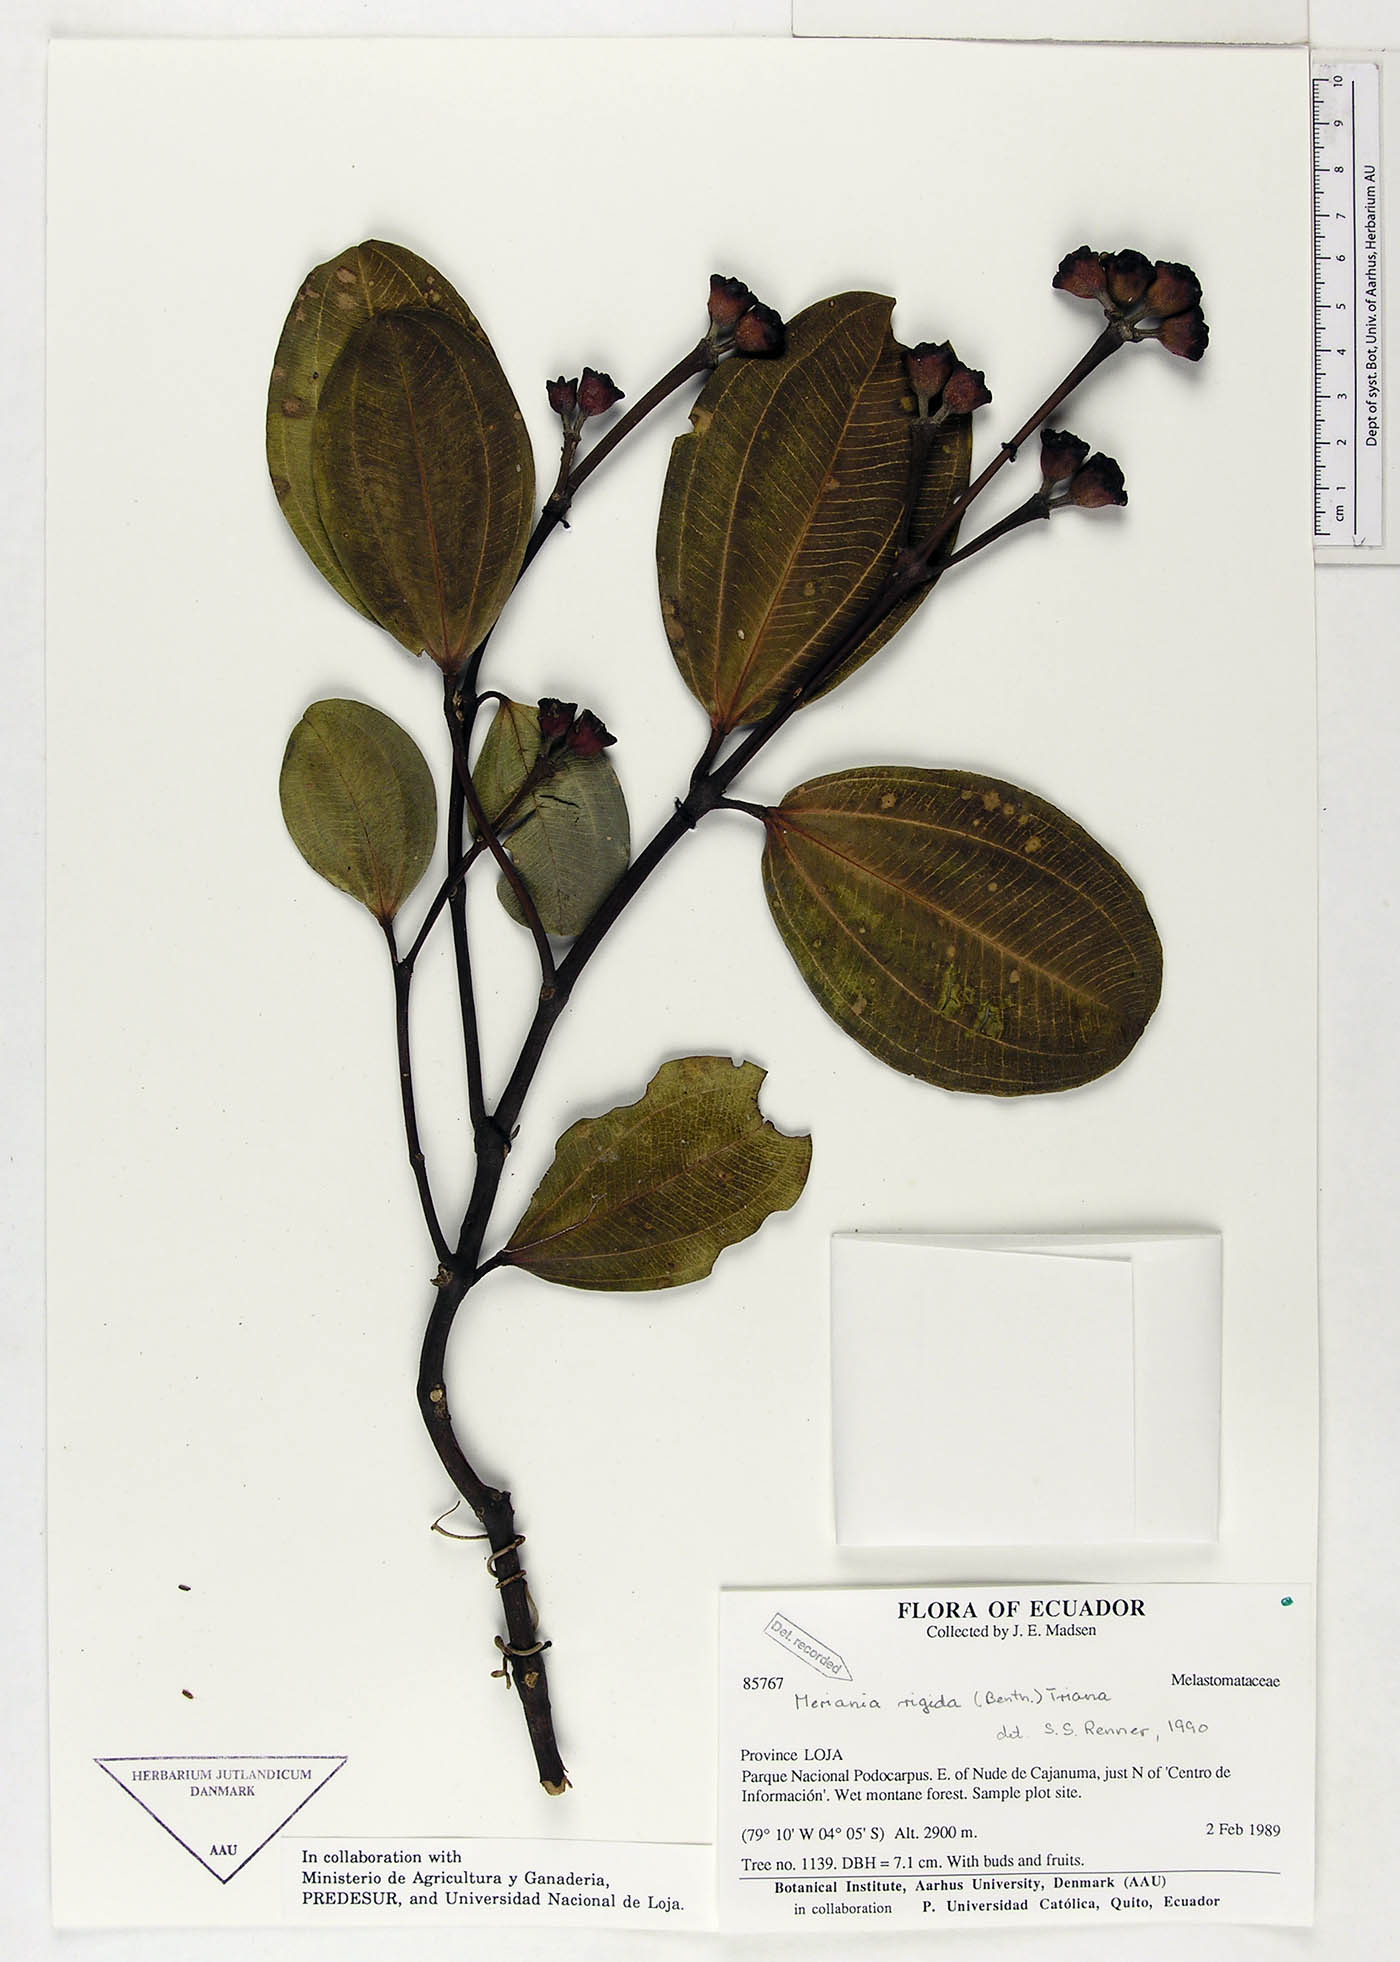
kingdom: Plantae
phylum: Tracheophyta
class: Magnoliopsida
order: Myrtales
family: Melastomataceae
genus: Meriania
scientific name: Meriania rigida
